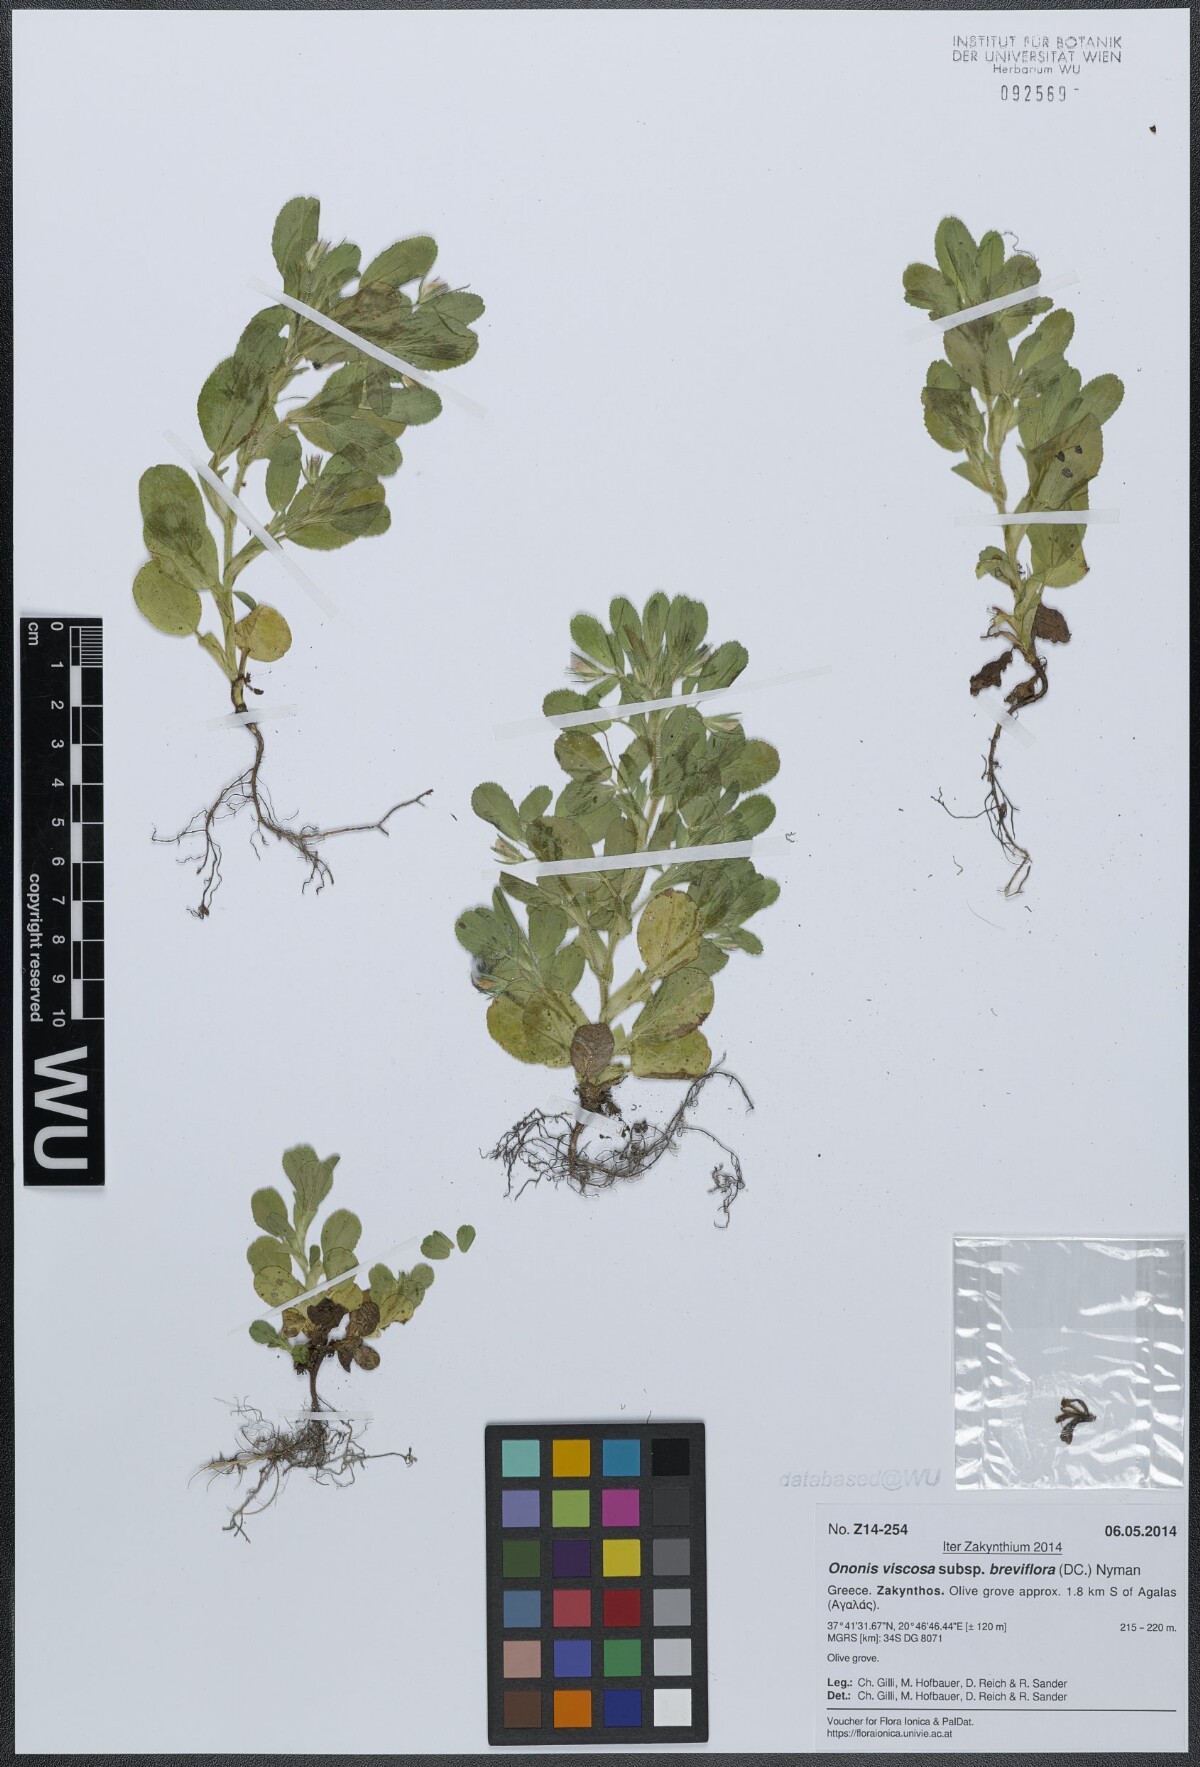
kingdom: Plantae
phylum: Tracheophyta
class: Magnoliopsida
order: Fabales
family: Fabaceae
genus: Ononis
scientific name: Ononis viscosa
